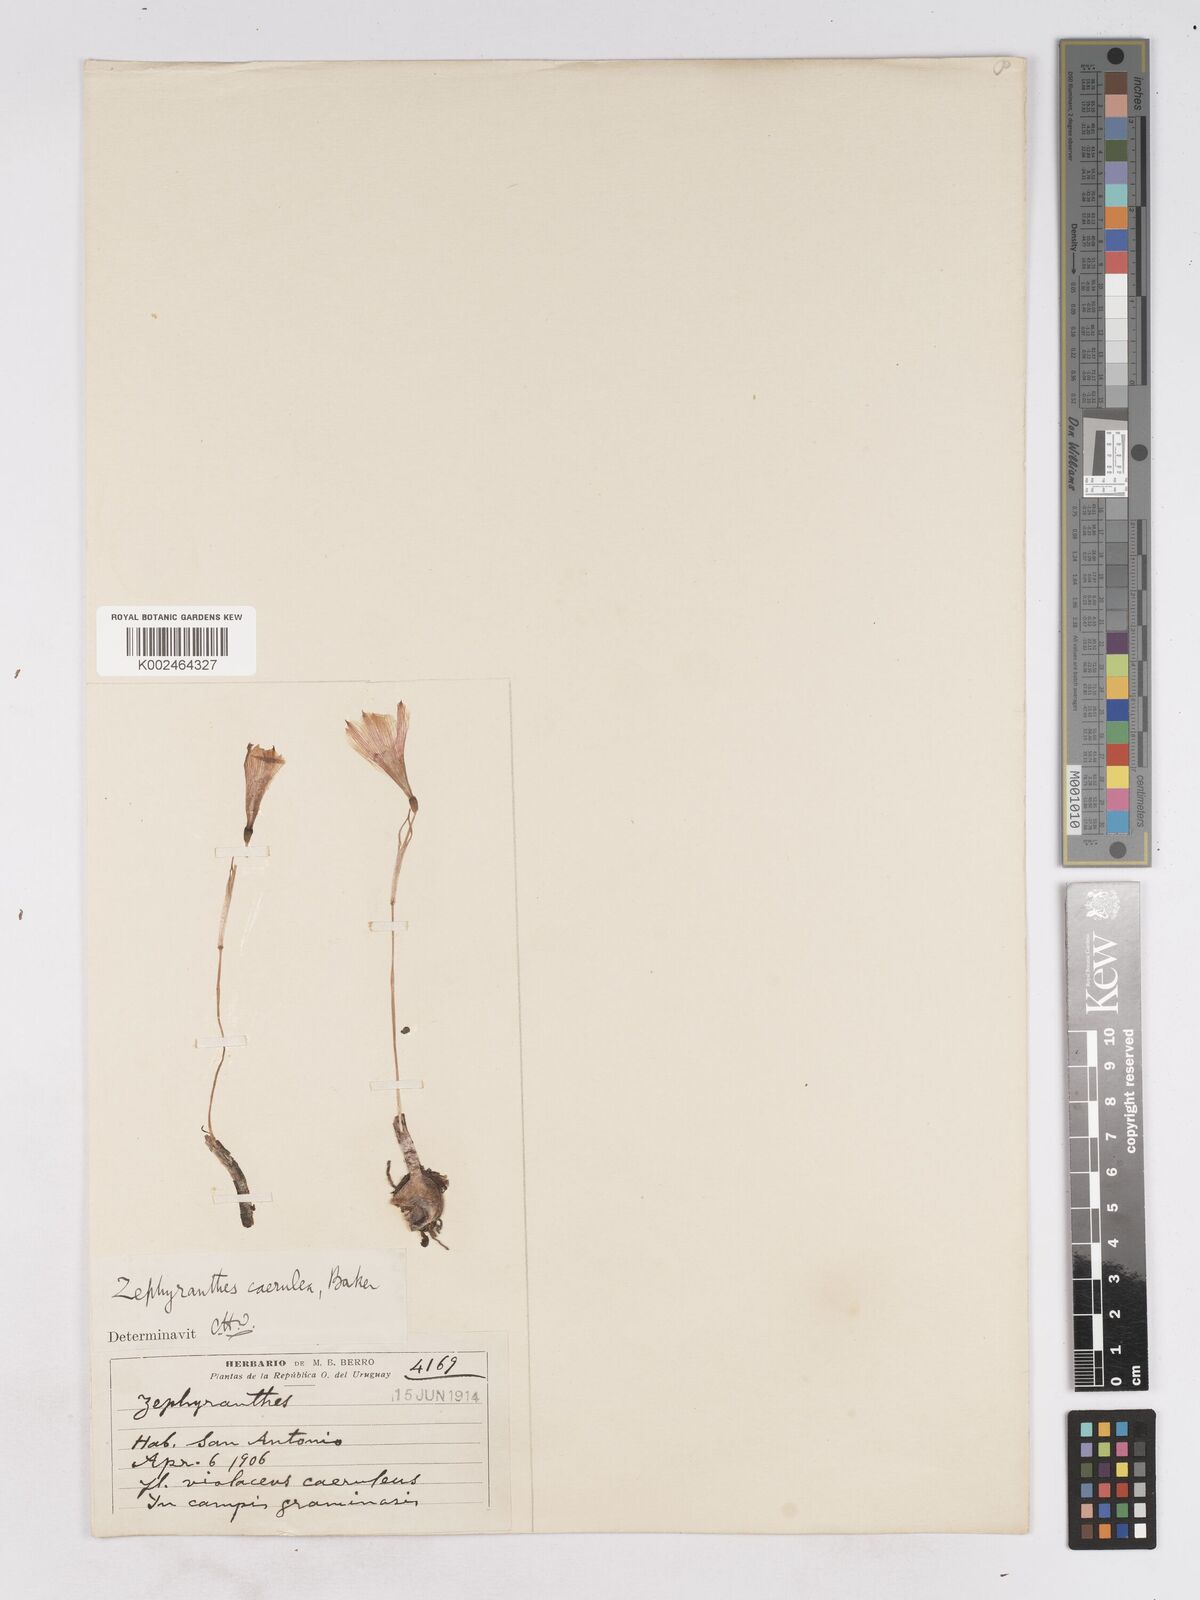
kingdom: Plantae
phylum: Tracheophyta
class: Liliopsida
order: Asparagales
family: Amaryllidaceae
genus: Zephyranthes
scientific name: Zephyranthes caerulea
